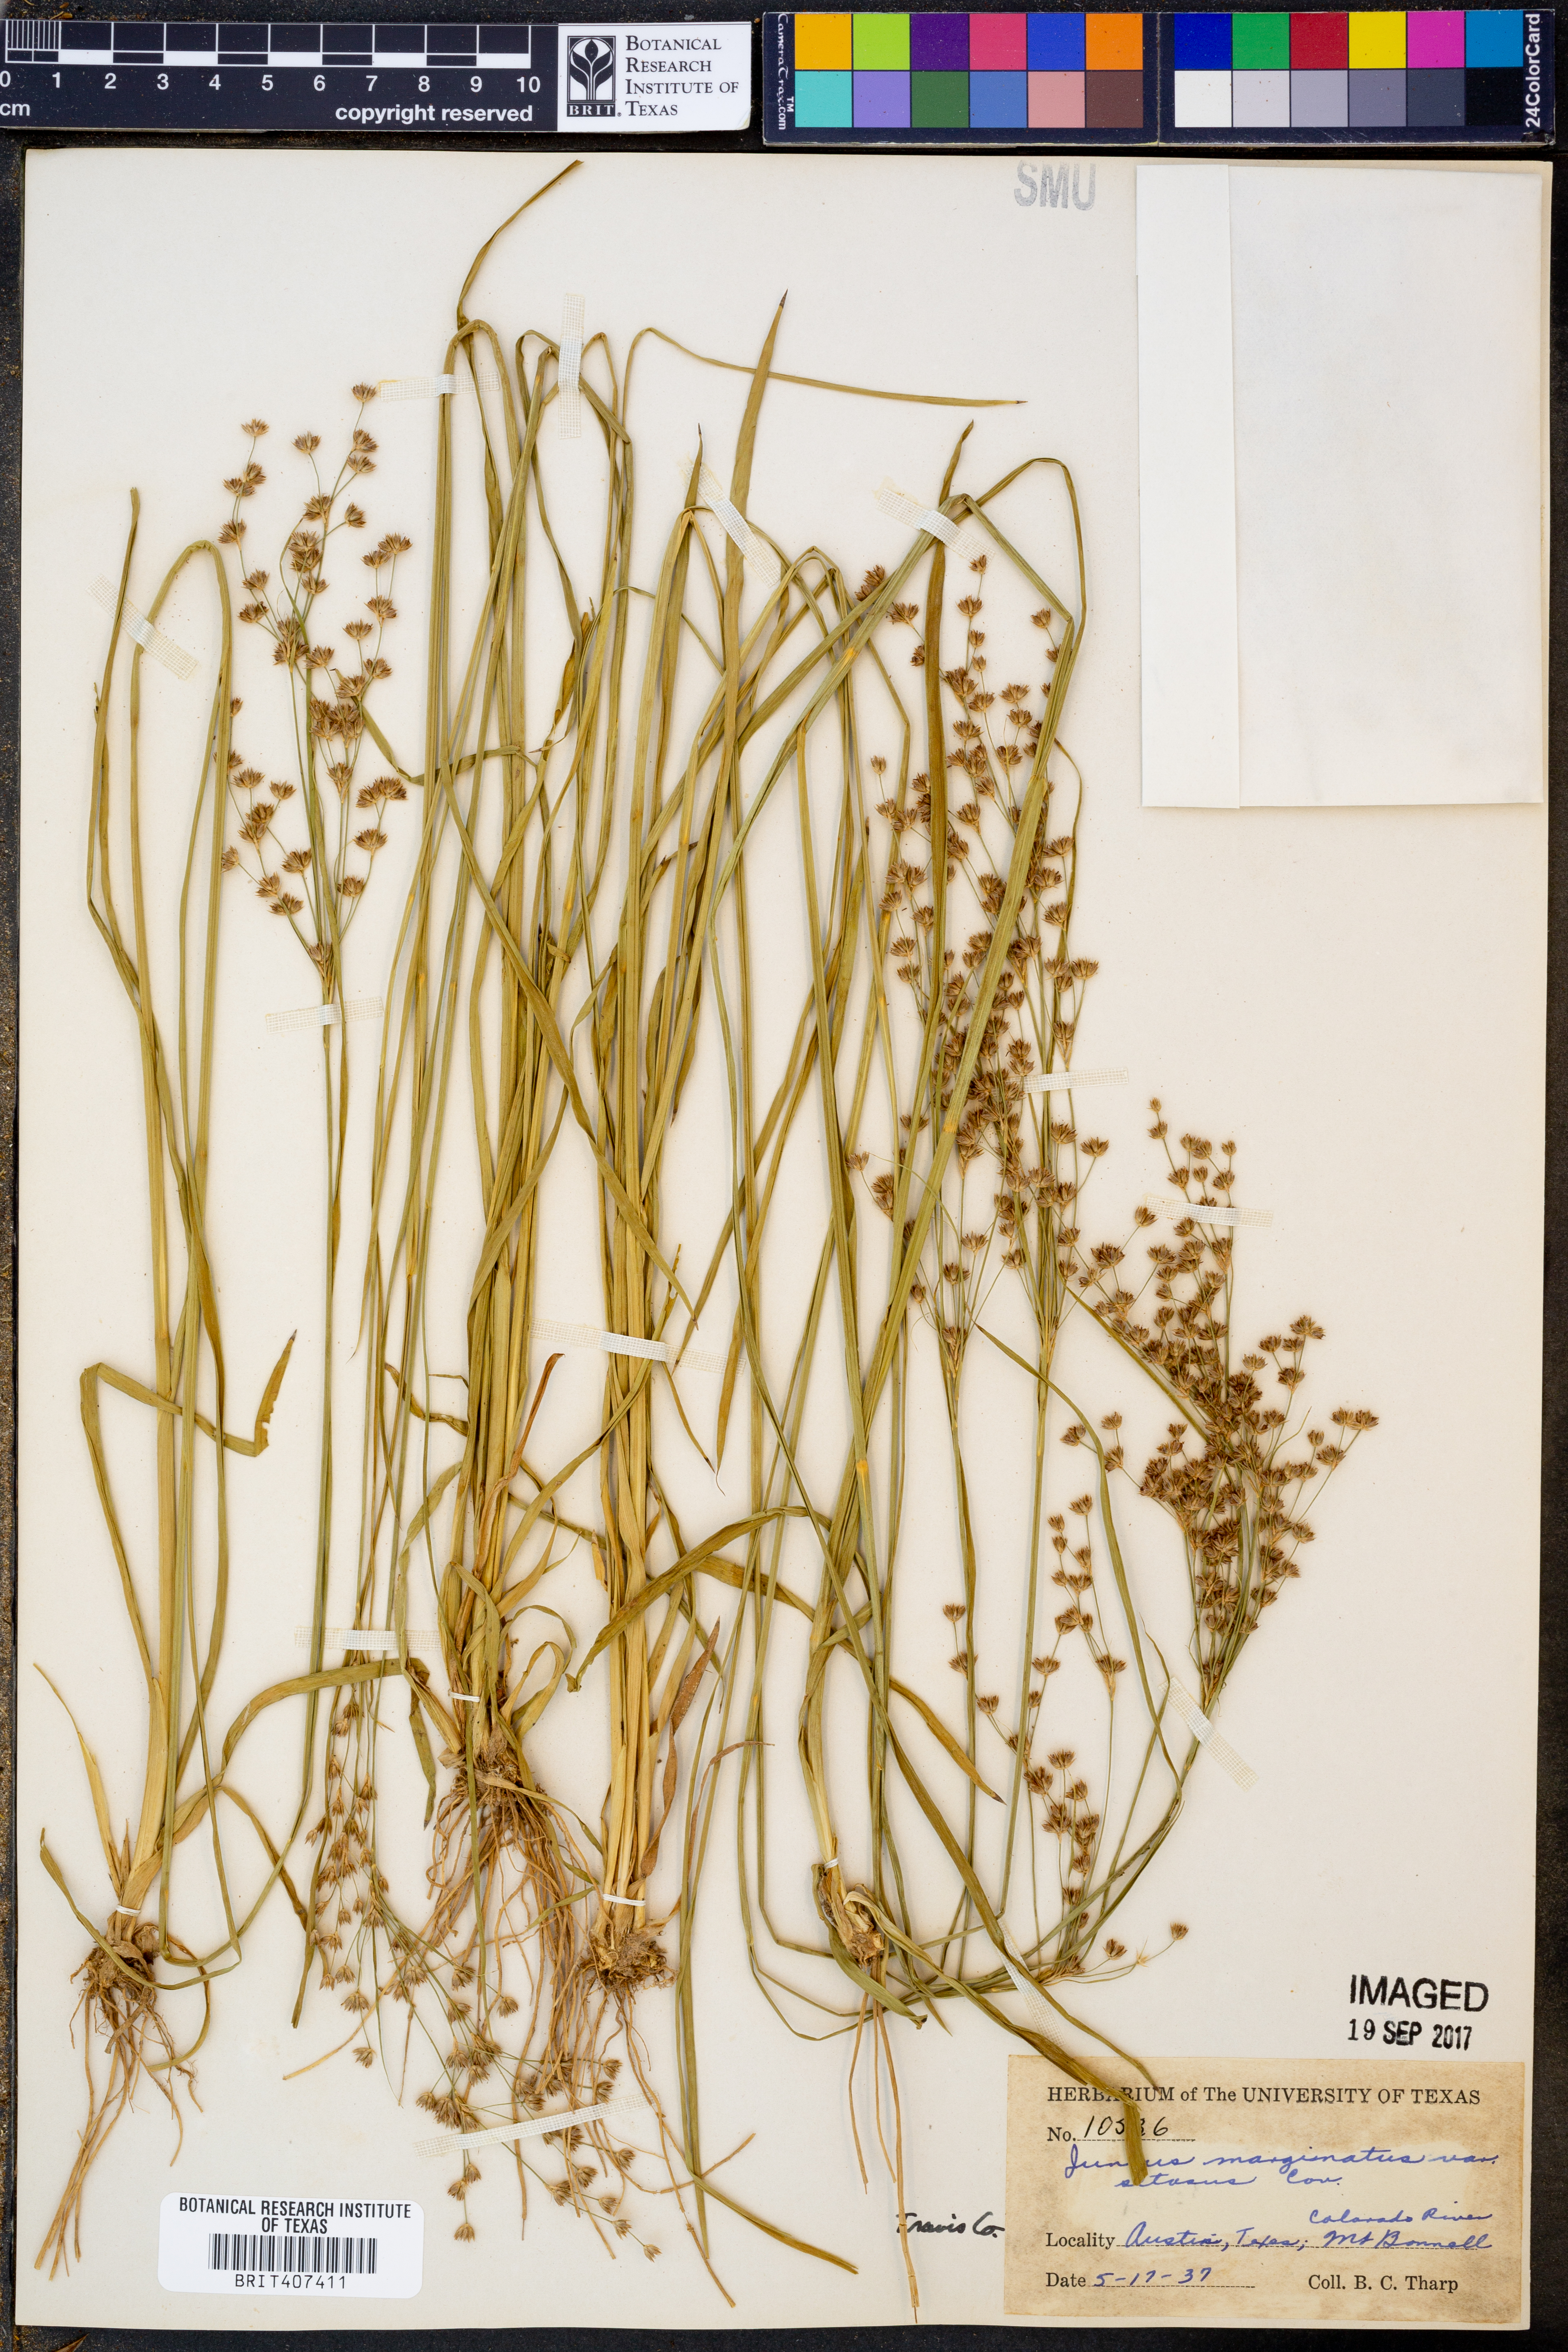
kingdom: Plantae
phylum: Tracheophyta
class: Liliopsida
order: Poales
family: Juncaceae
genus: Juncus
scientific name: Juncus marginatus
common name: Grass-leaf rush
